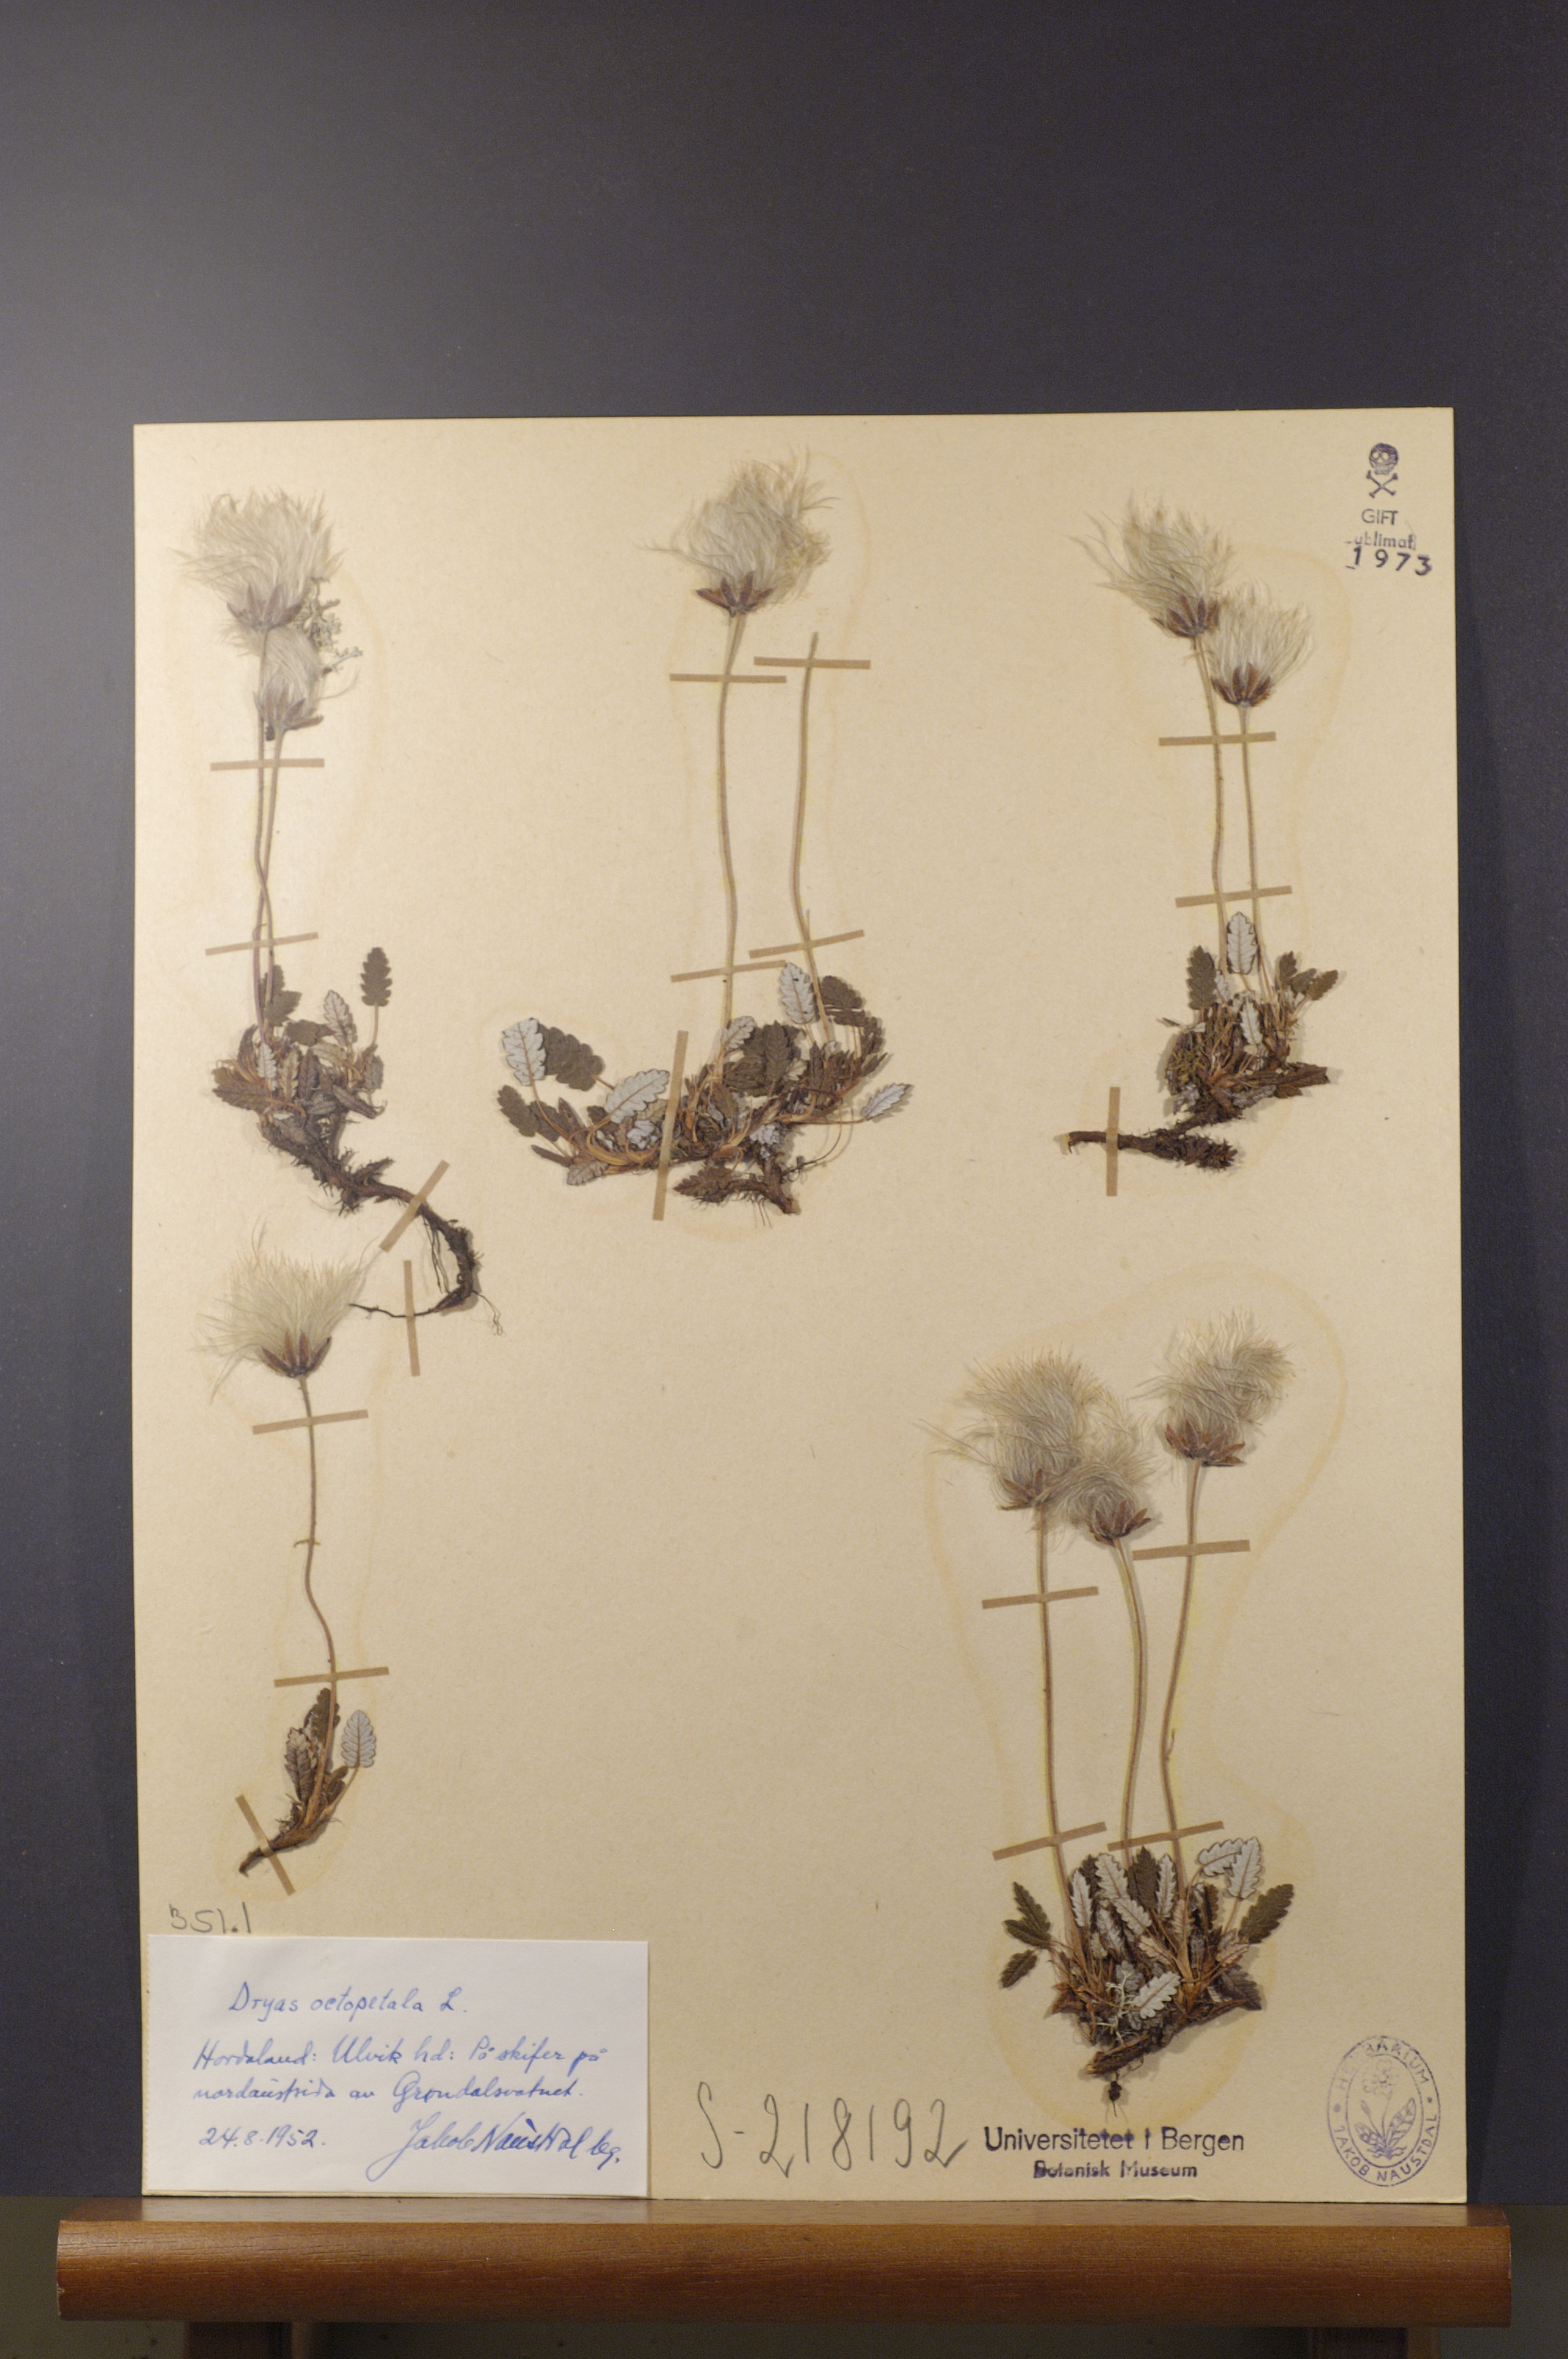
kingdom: Plantae
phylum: Tracheophyta
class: Magnoliopsida
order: Rosales
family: Rosaceae
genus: Dryas
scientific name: Dryas octopetala
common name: Eight-petal mountain-avens
